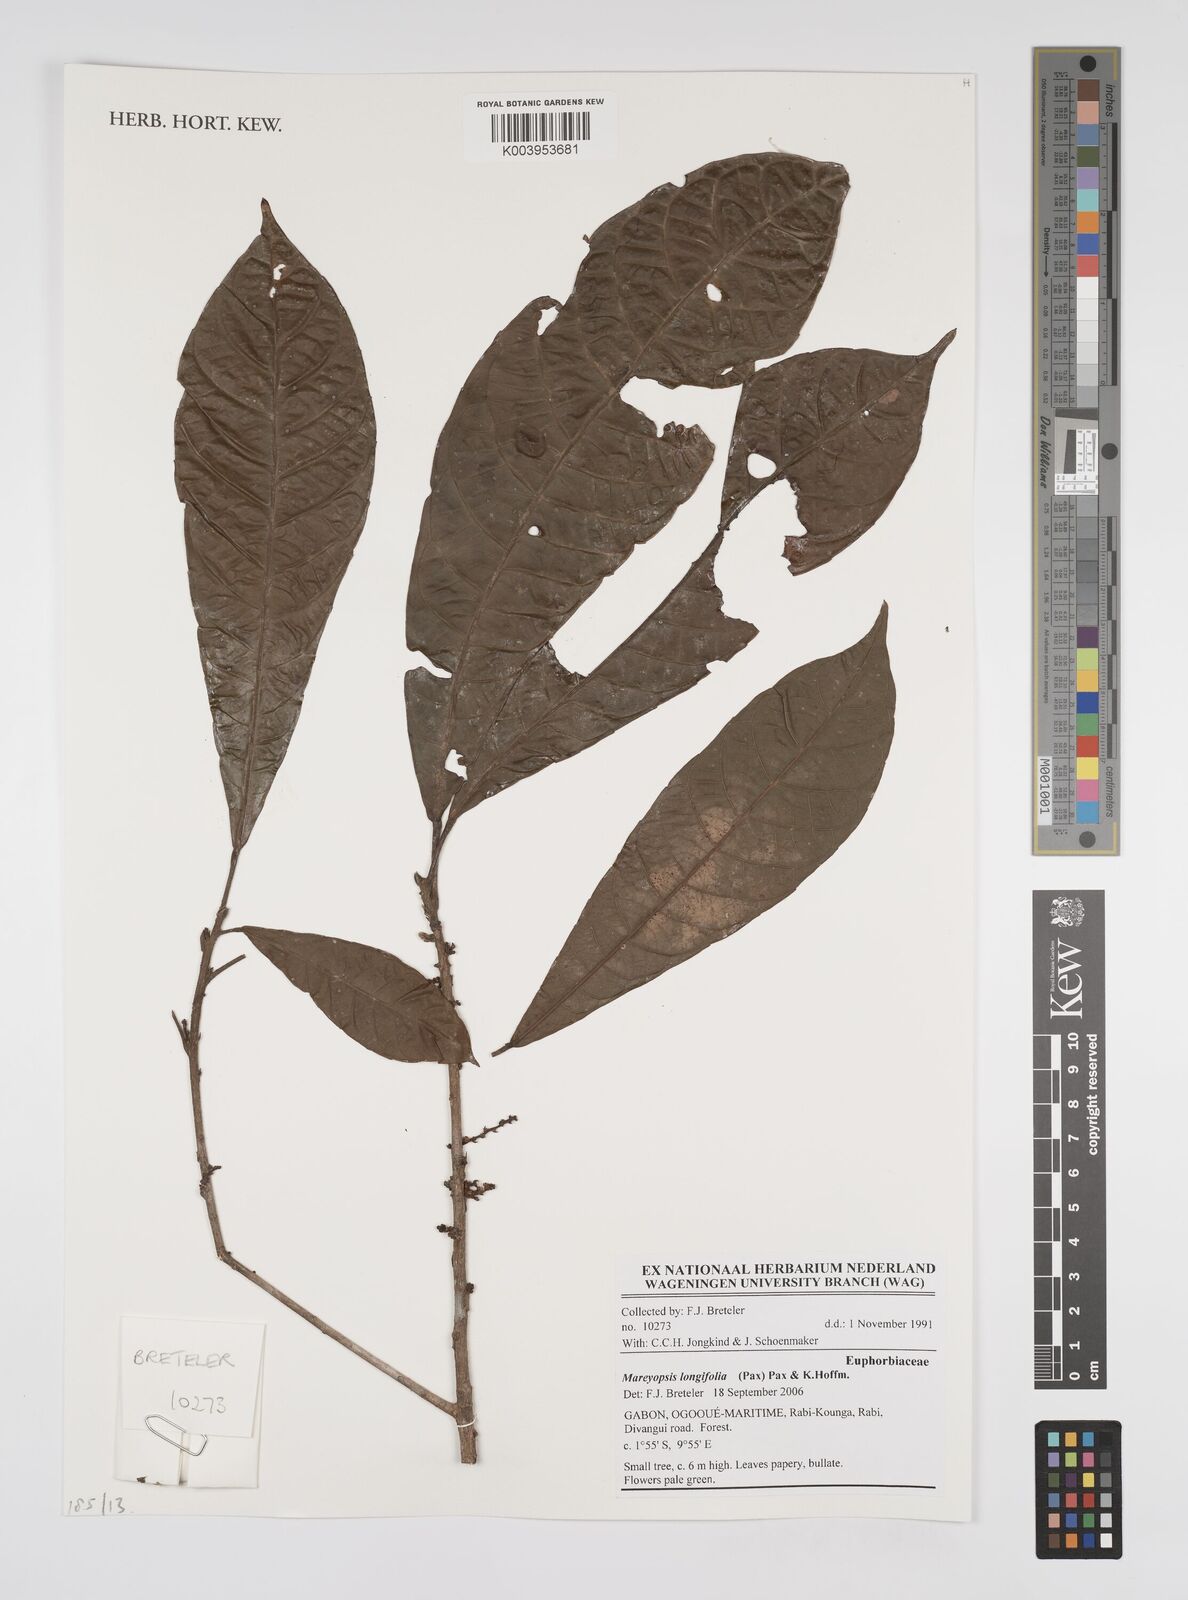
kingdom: Plantae
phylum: Tracheophyta
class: Magnoliopsida
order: Malpighiales
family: Euphorbiaceae
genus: Mareyopsis
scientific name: Mareyopsis longifolia
